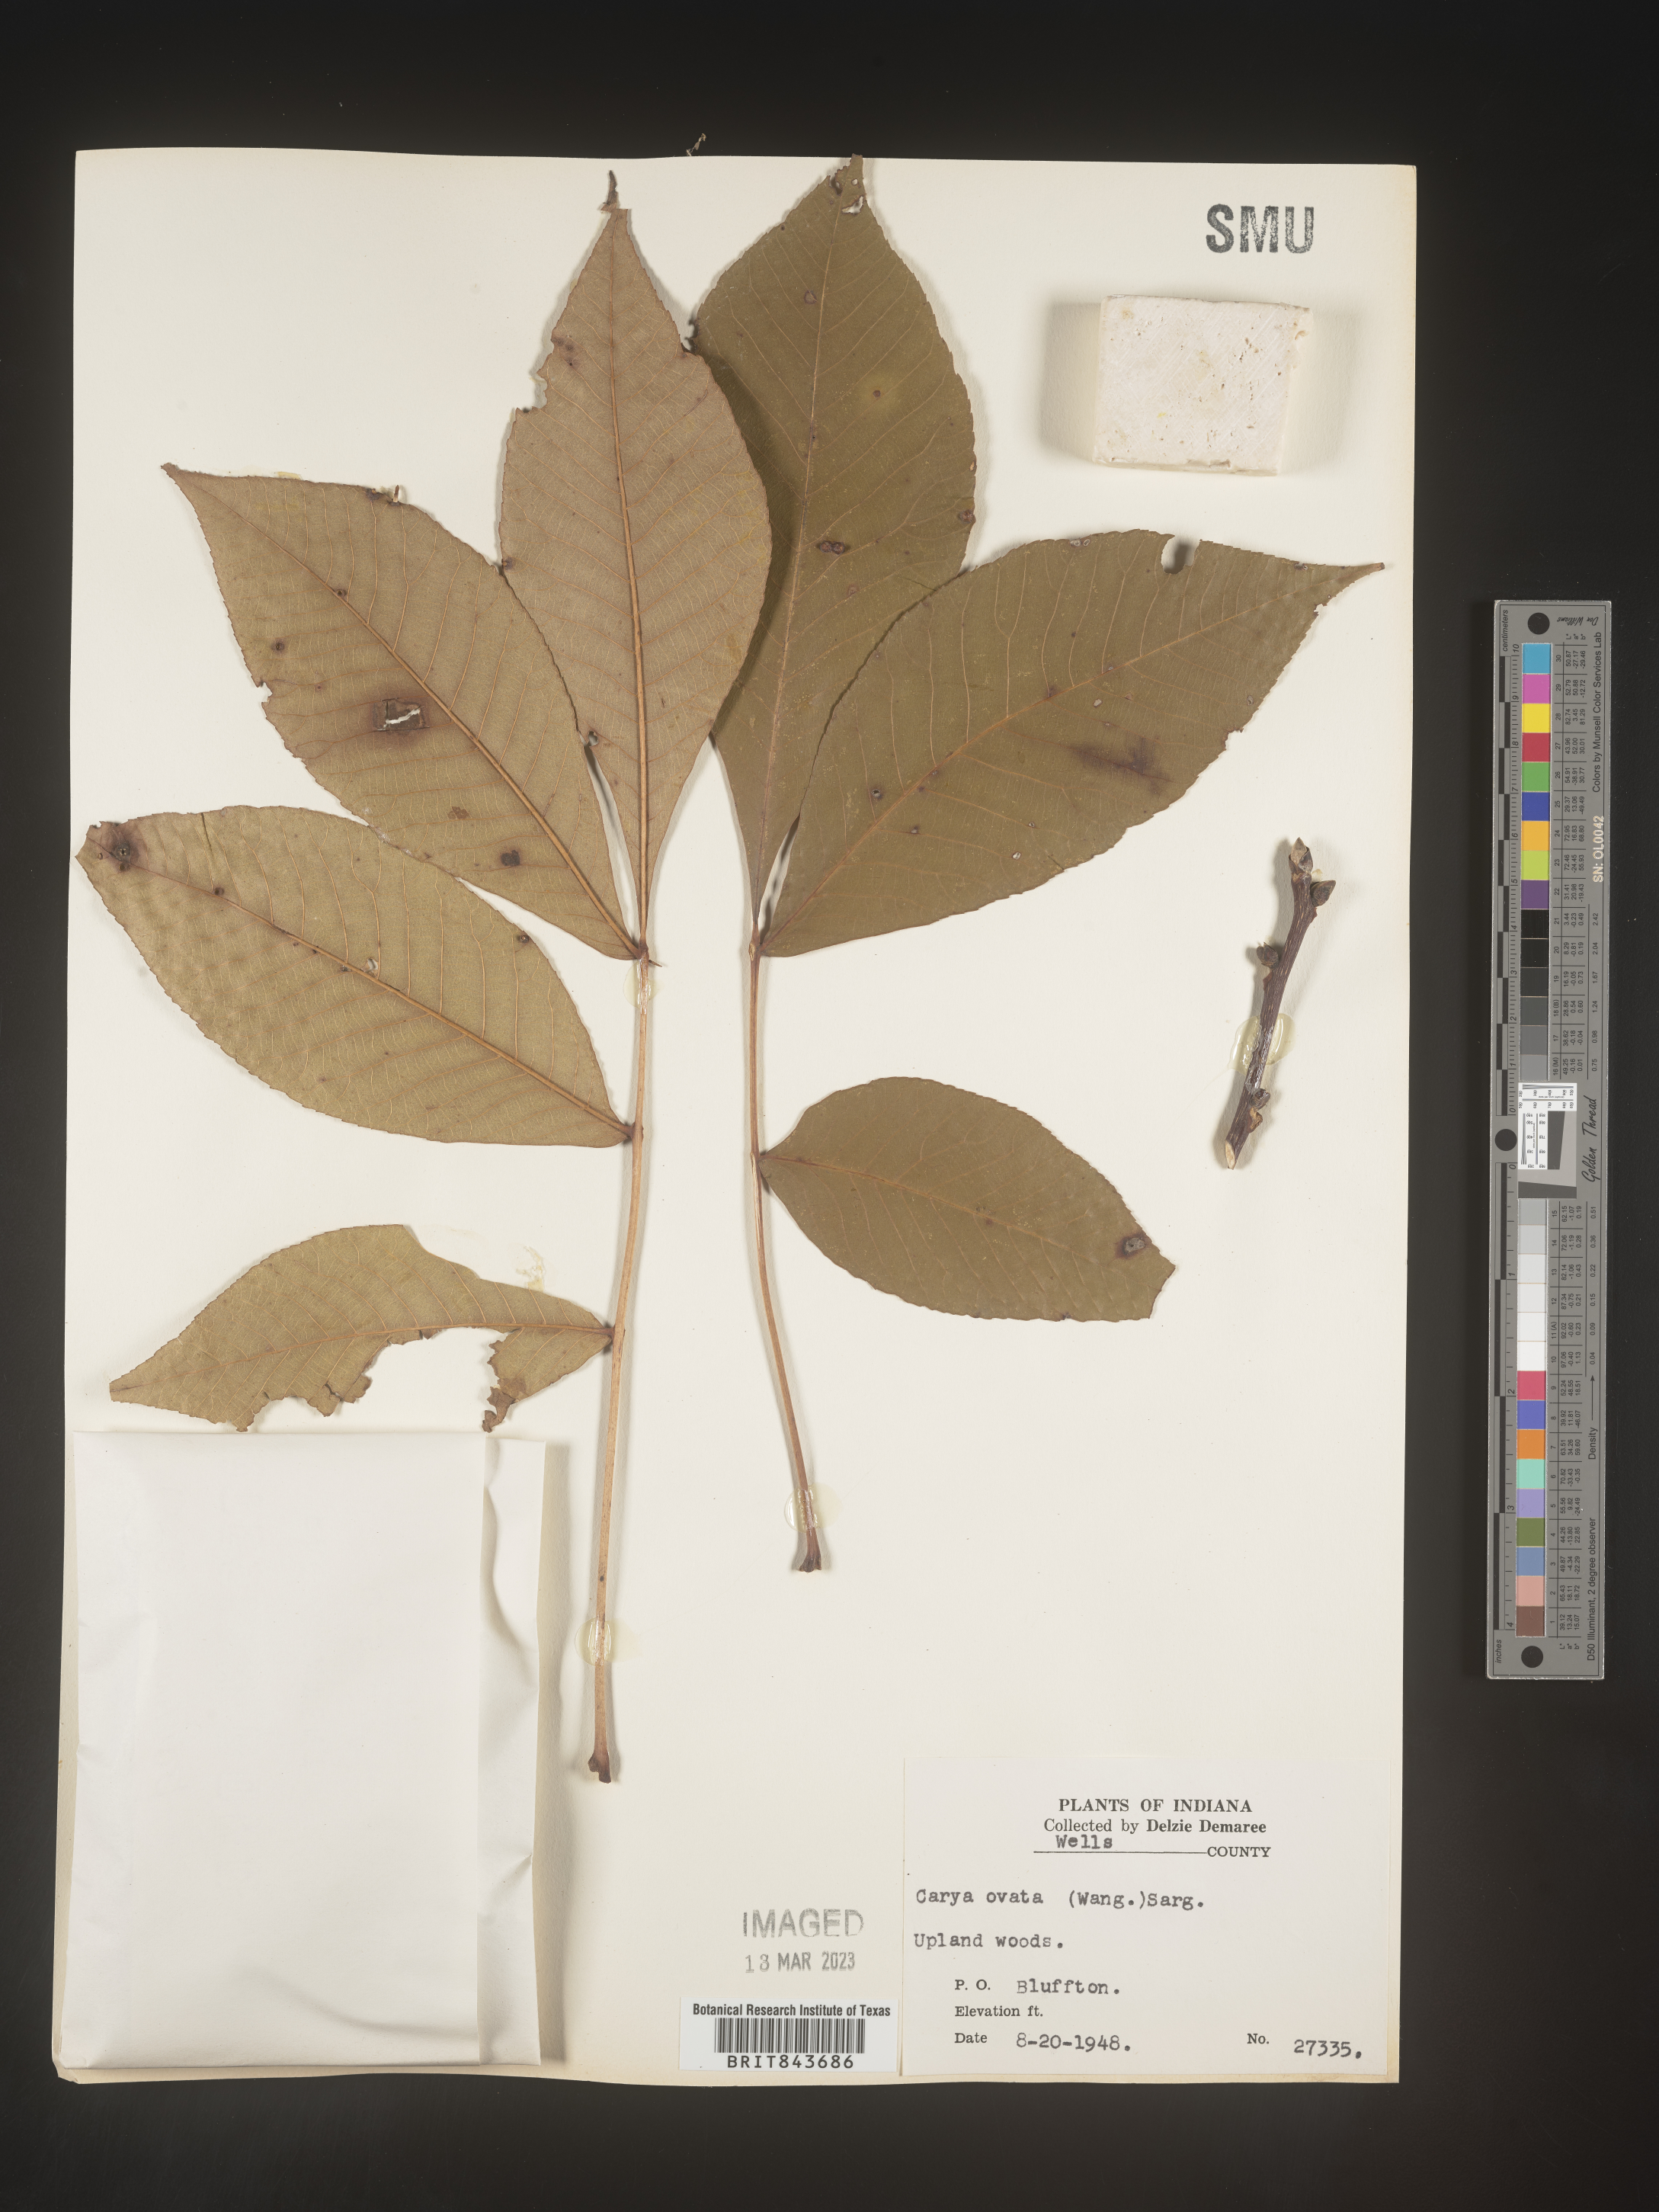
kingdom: Plantae
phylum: Tracheophyta
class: Magnoliopsida
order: Fagales
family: Juglandaceae
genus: Carya
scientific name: Carya ovata
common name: Shagbark hickory
